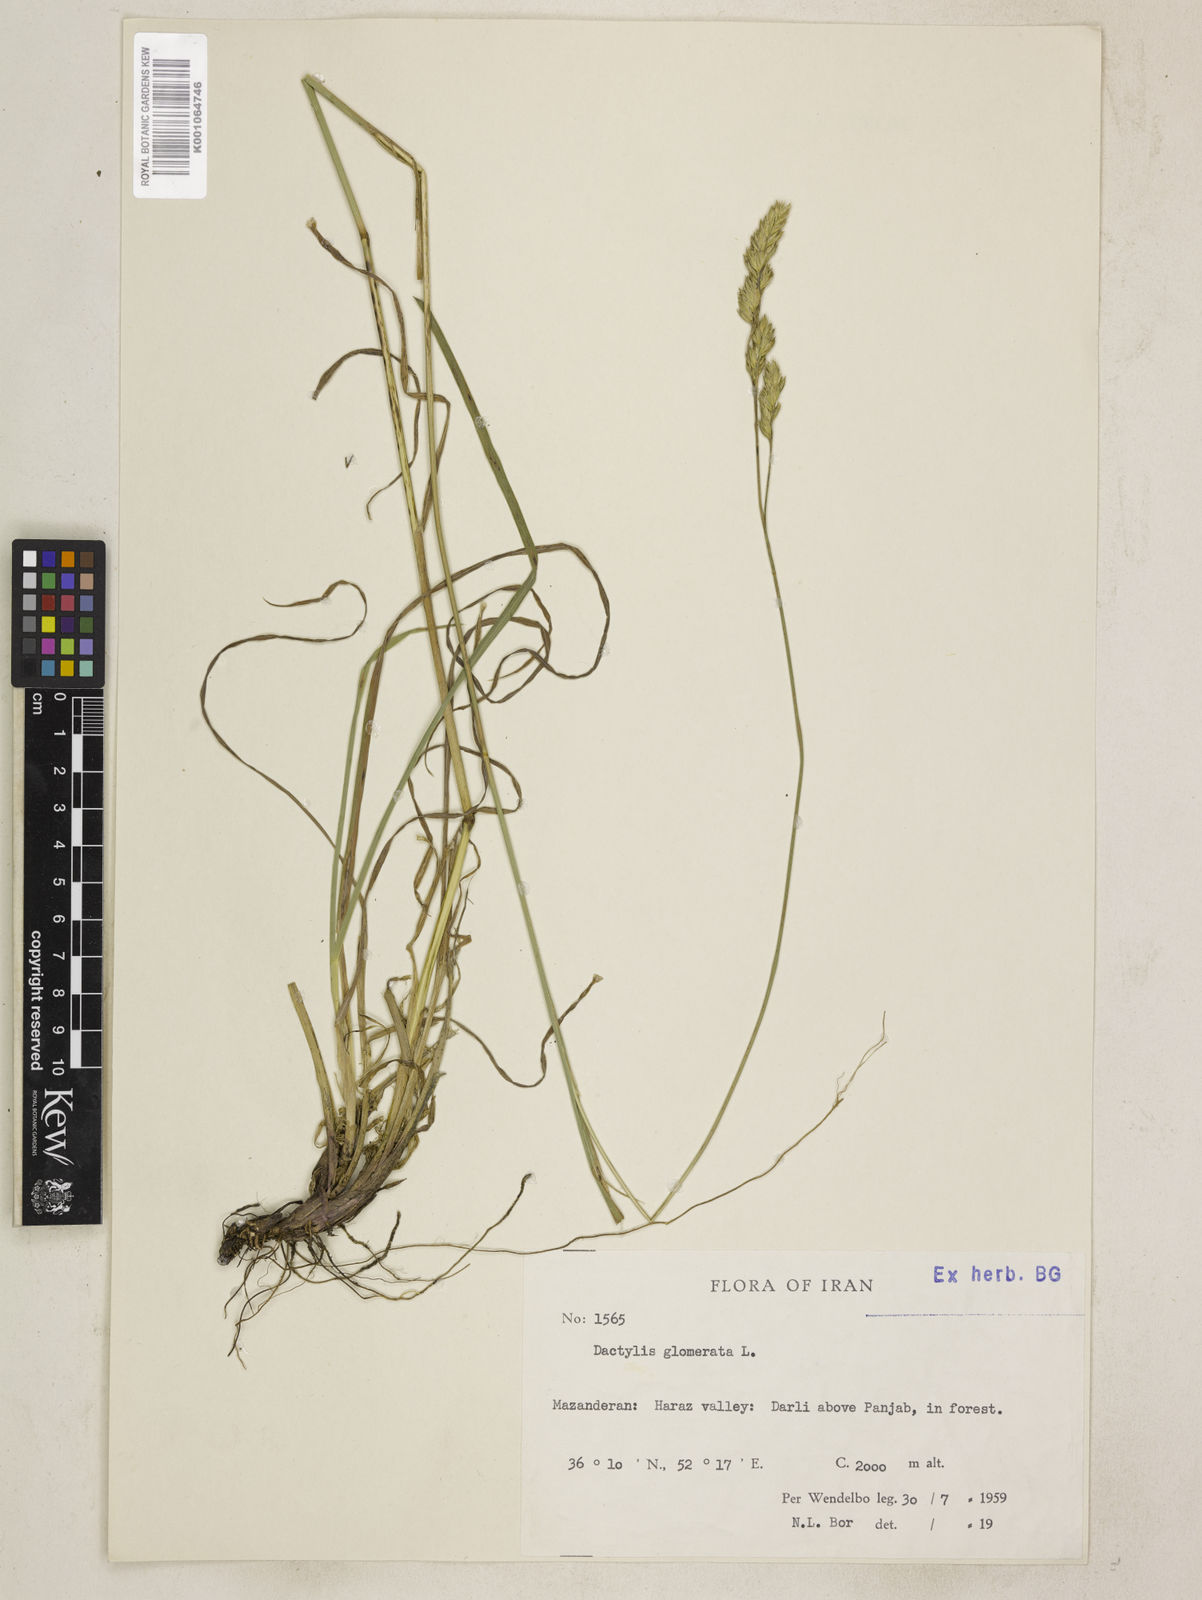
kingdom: Plantae
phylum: Tracheophyta
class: Liliopsida
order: Poales
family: Poaceae
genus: Dactylis
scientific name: Dactylis glomerata
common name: Orchardgrass
